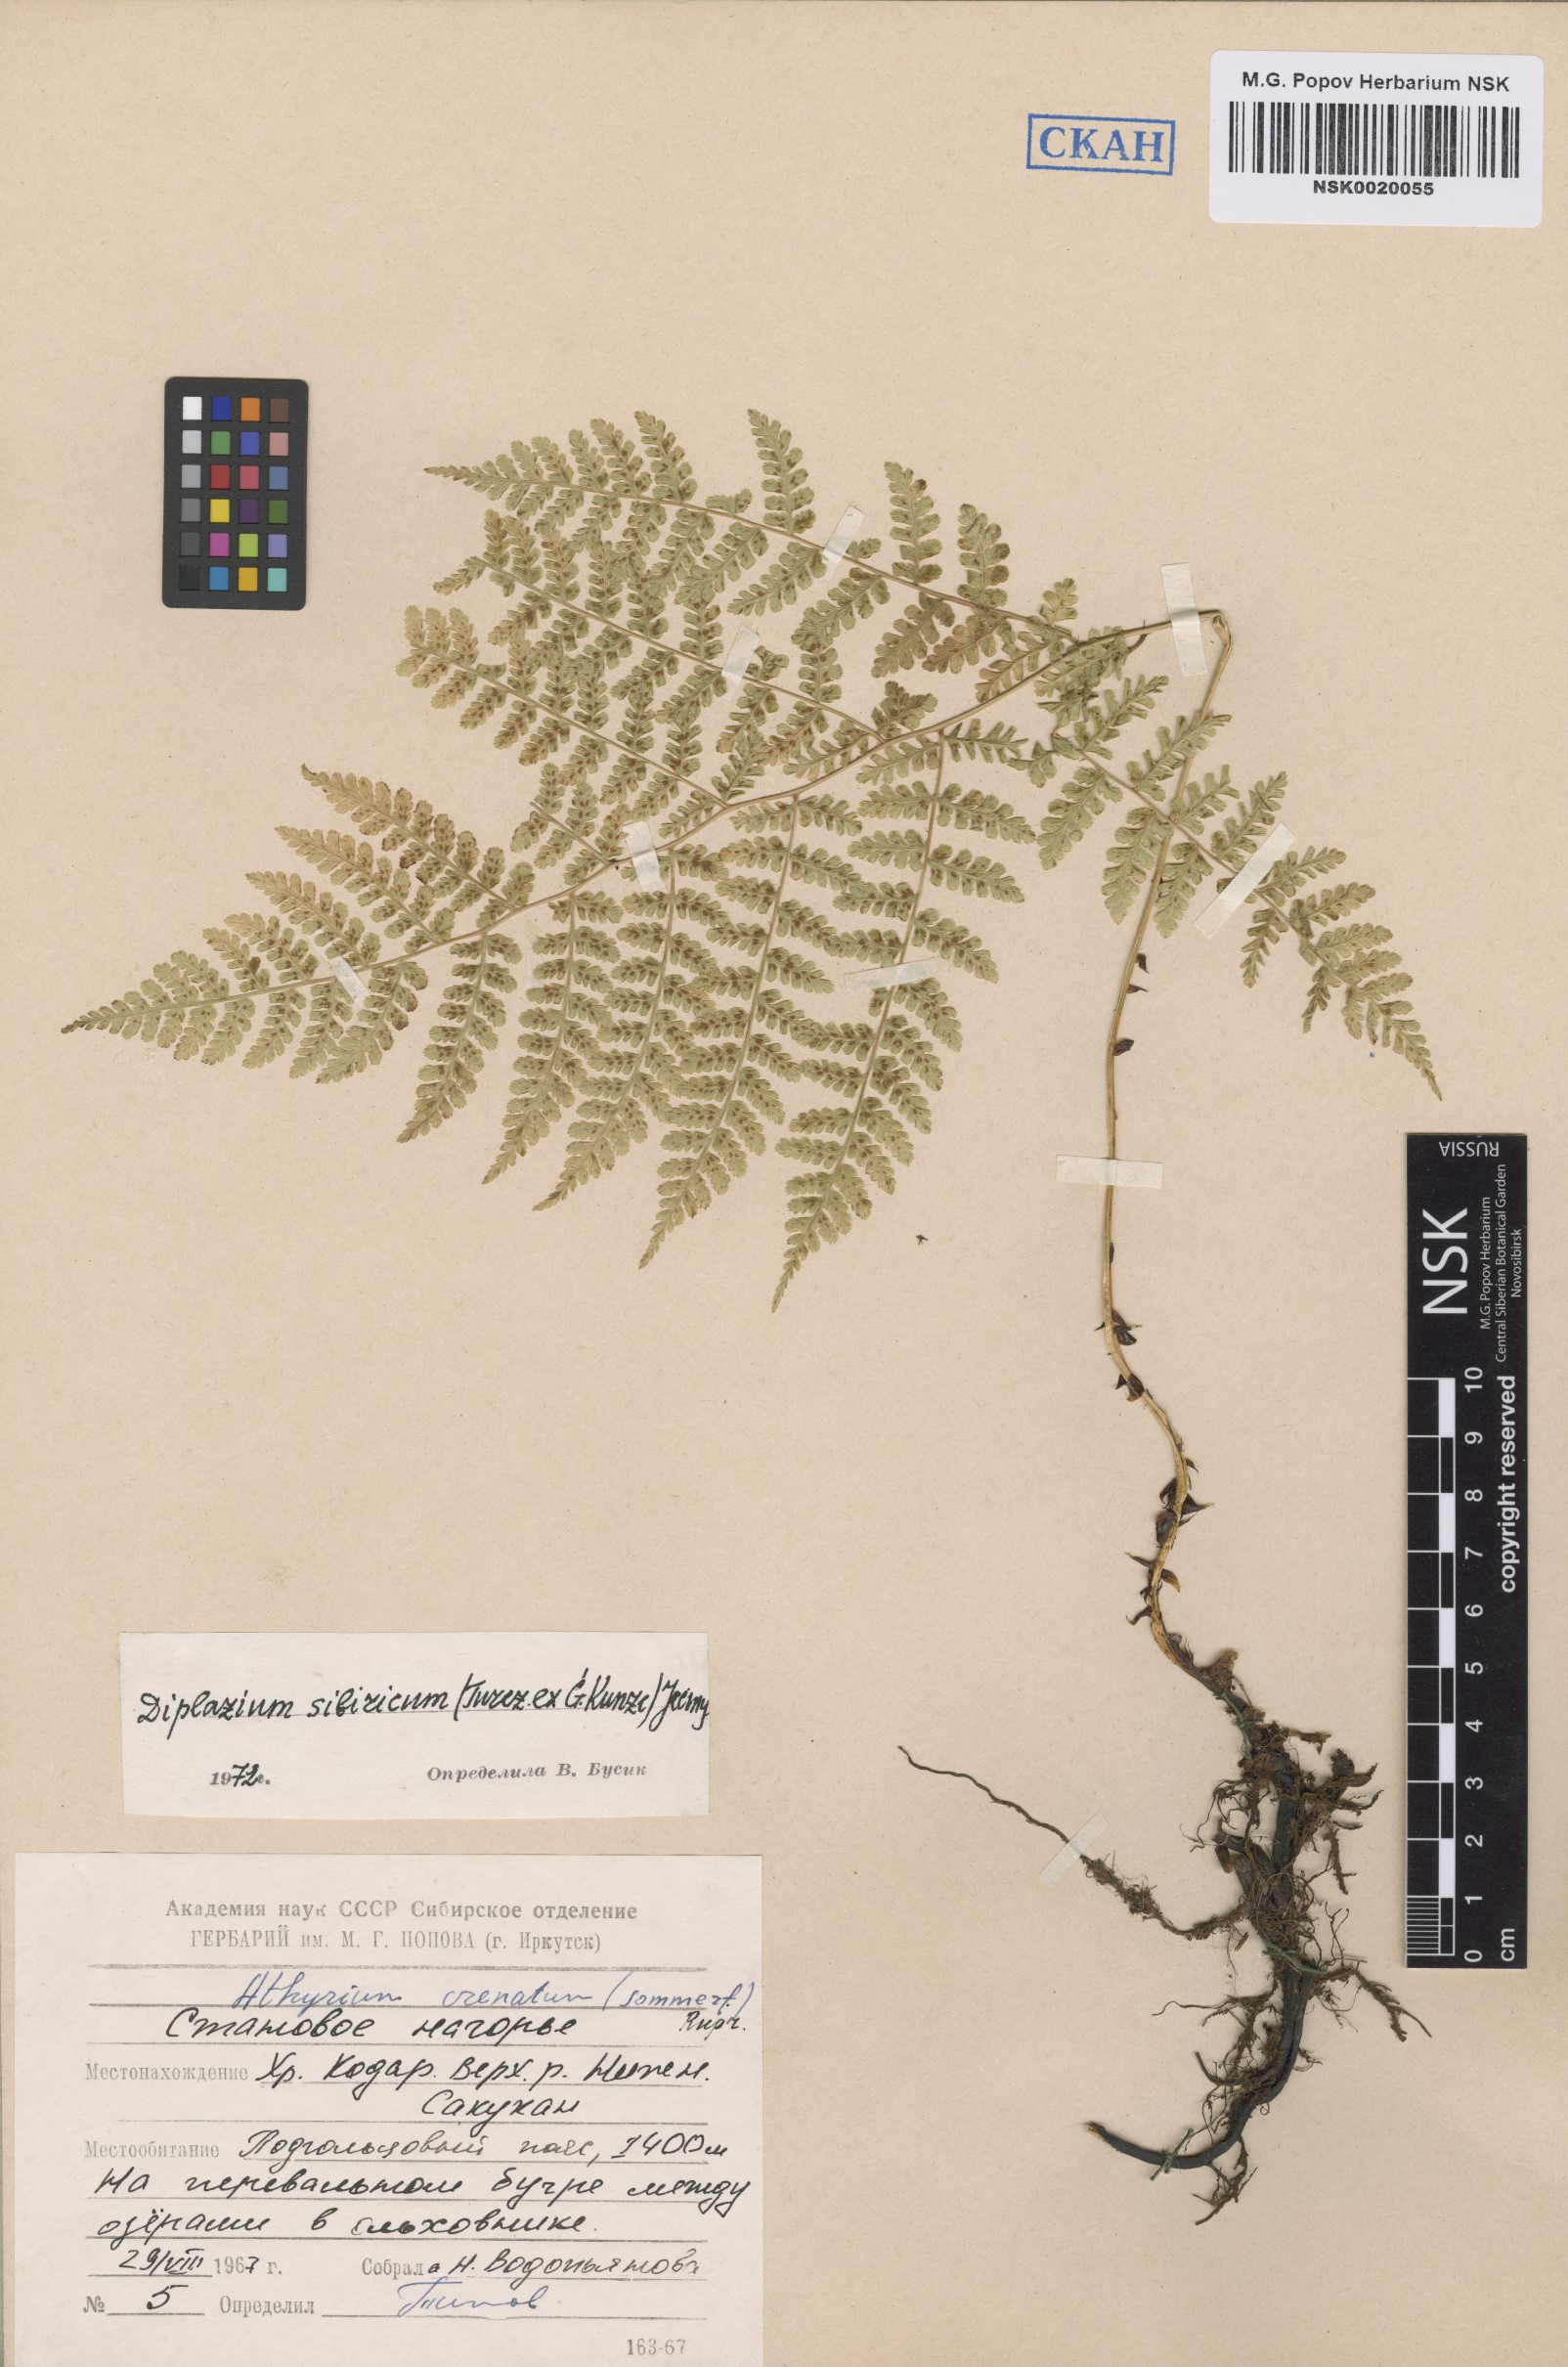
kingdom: Plantae
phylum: Tracheophyta
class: Polypodiopsida
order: Polypodiales
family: Athyriaceae
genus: Diplazium
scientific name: Diplazium sibiricum
